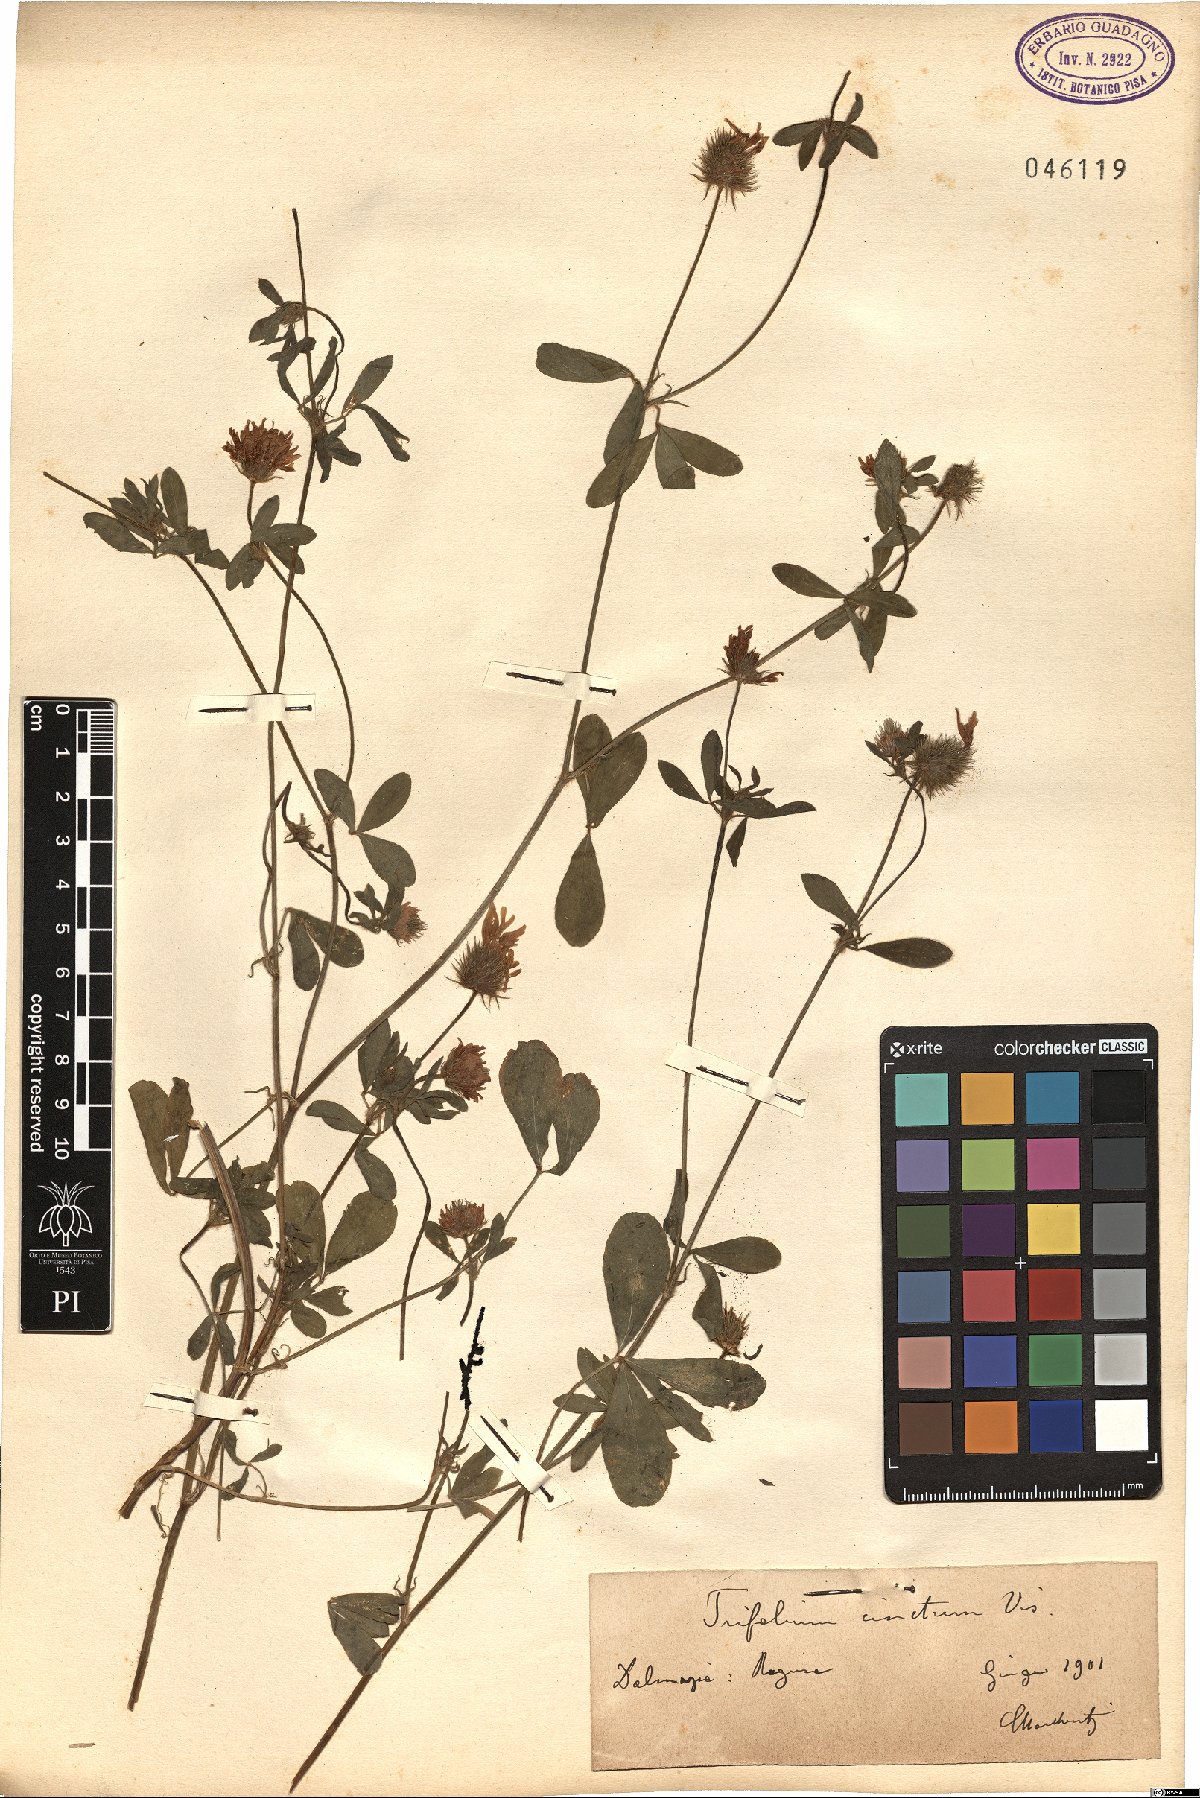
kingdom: Plantae
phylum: Tracheophyta
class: Magnoliopsida
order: Fabales
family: Fabaceae
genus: Trifolium
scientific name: Trifolium squamosum
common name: Sea clover
